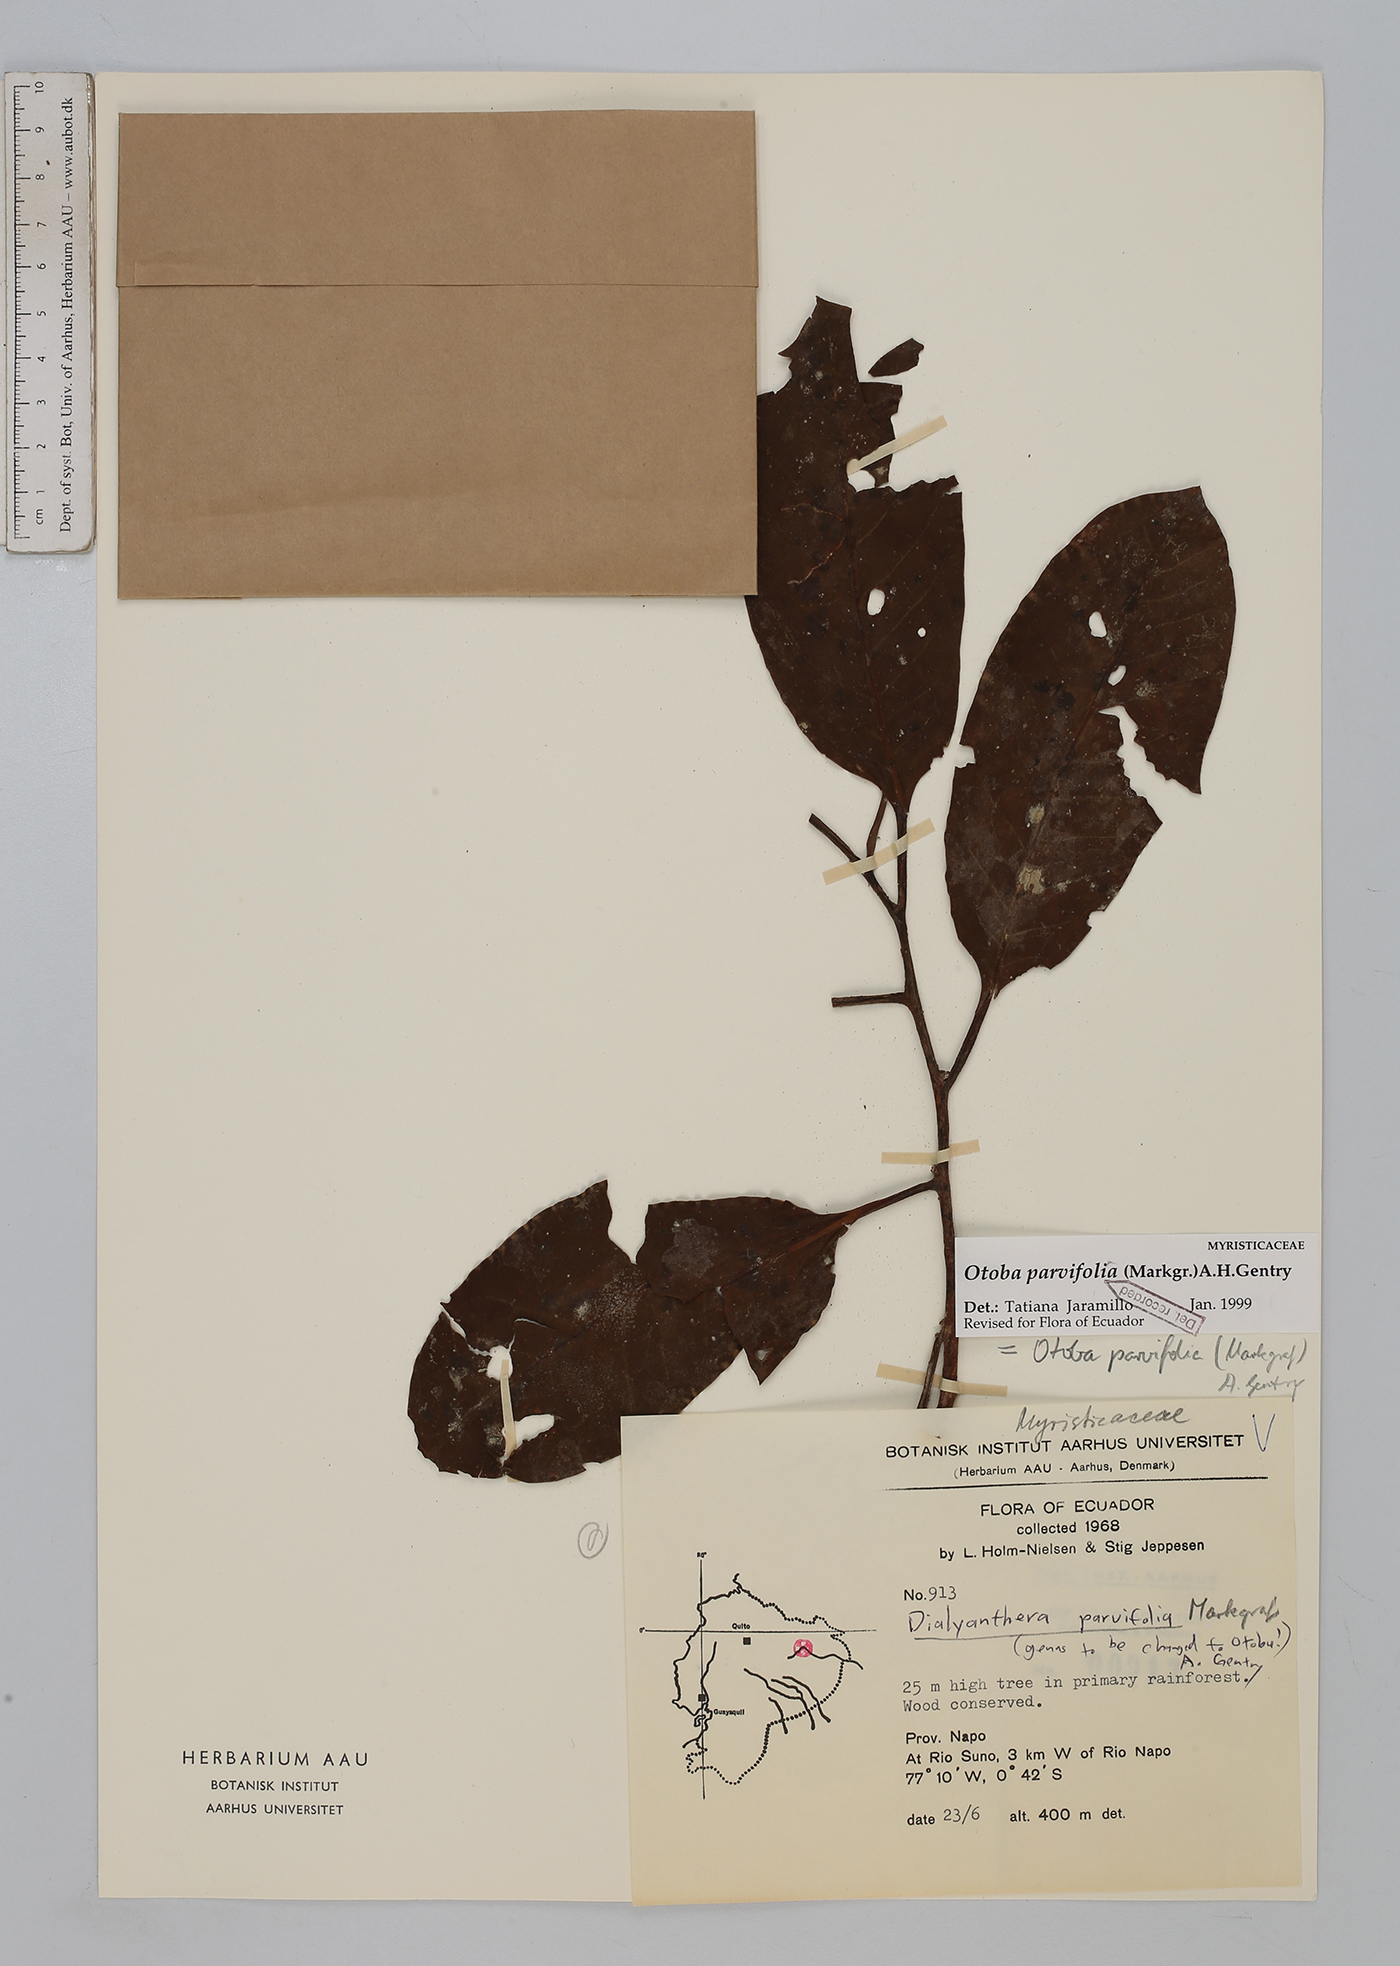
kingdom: Plantae
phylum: Tracheophyta
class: Magnoliopsida
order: Magnoliales
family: Myristicaceae
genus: Otoba
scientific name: Otoba parvifolia
